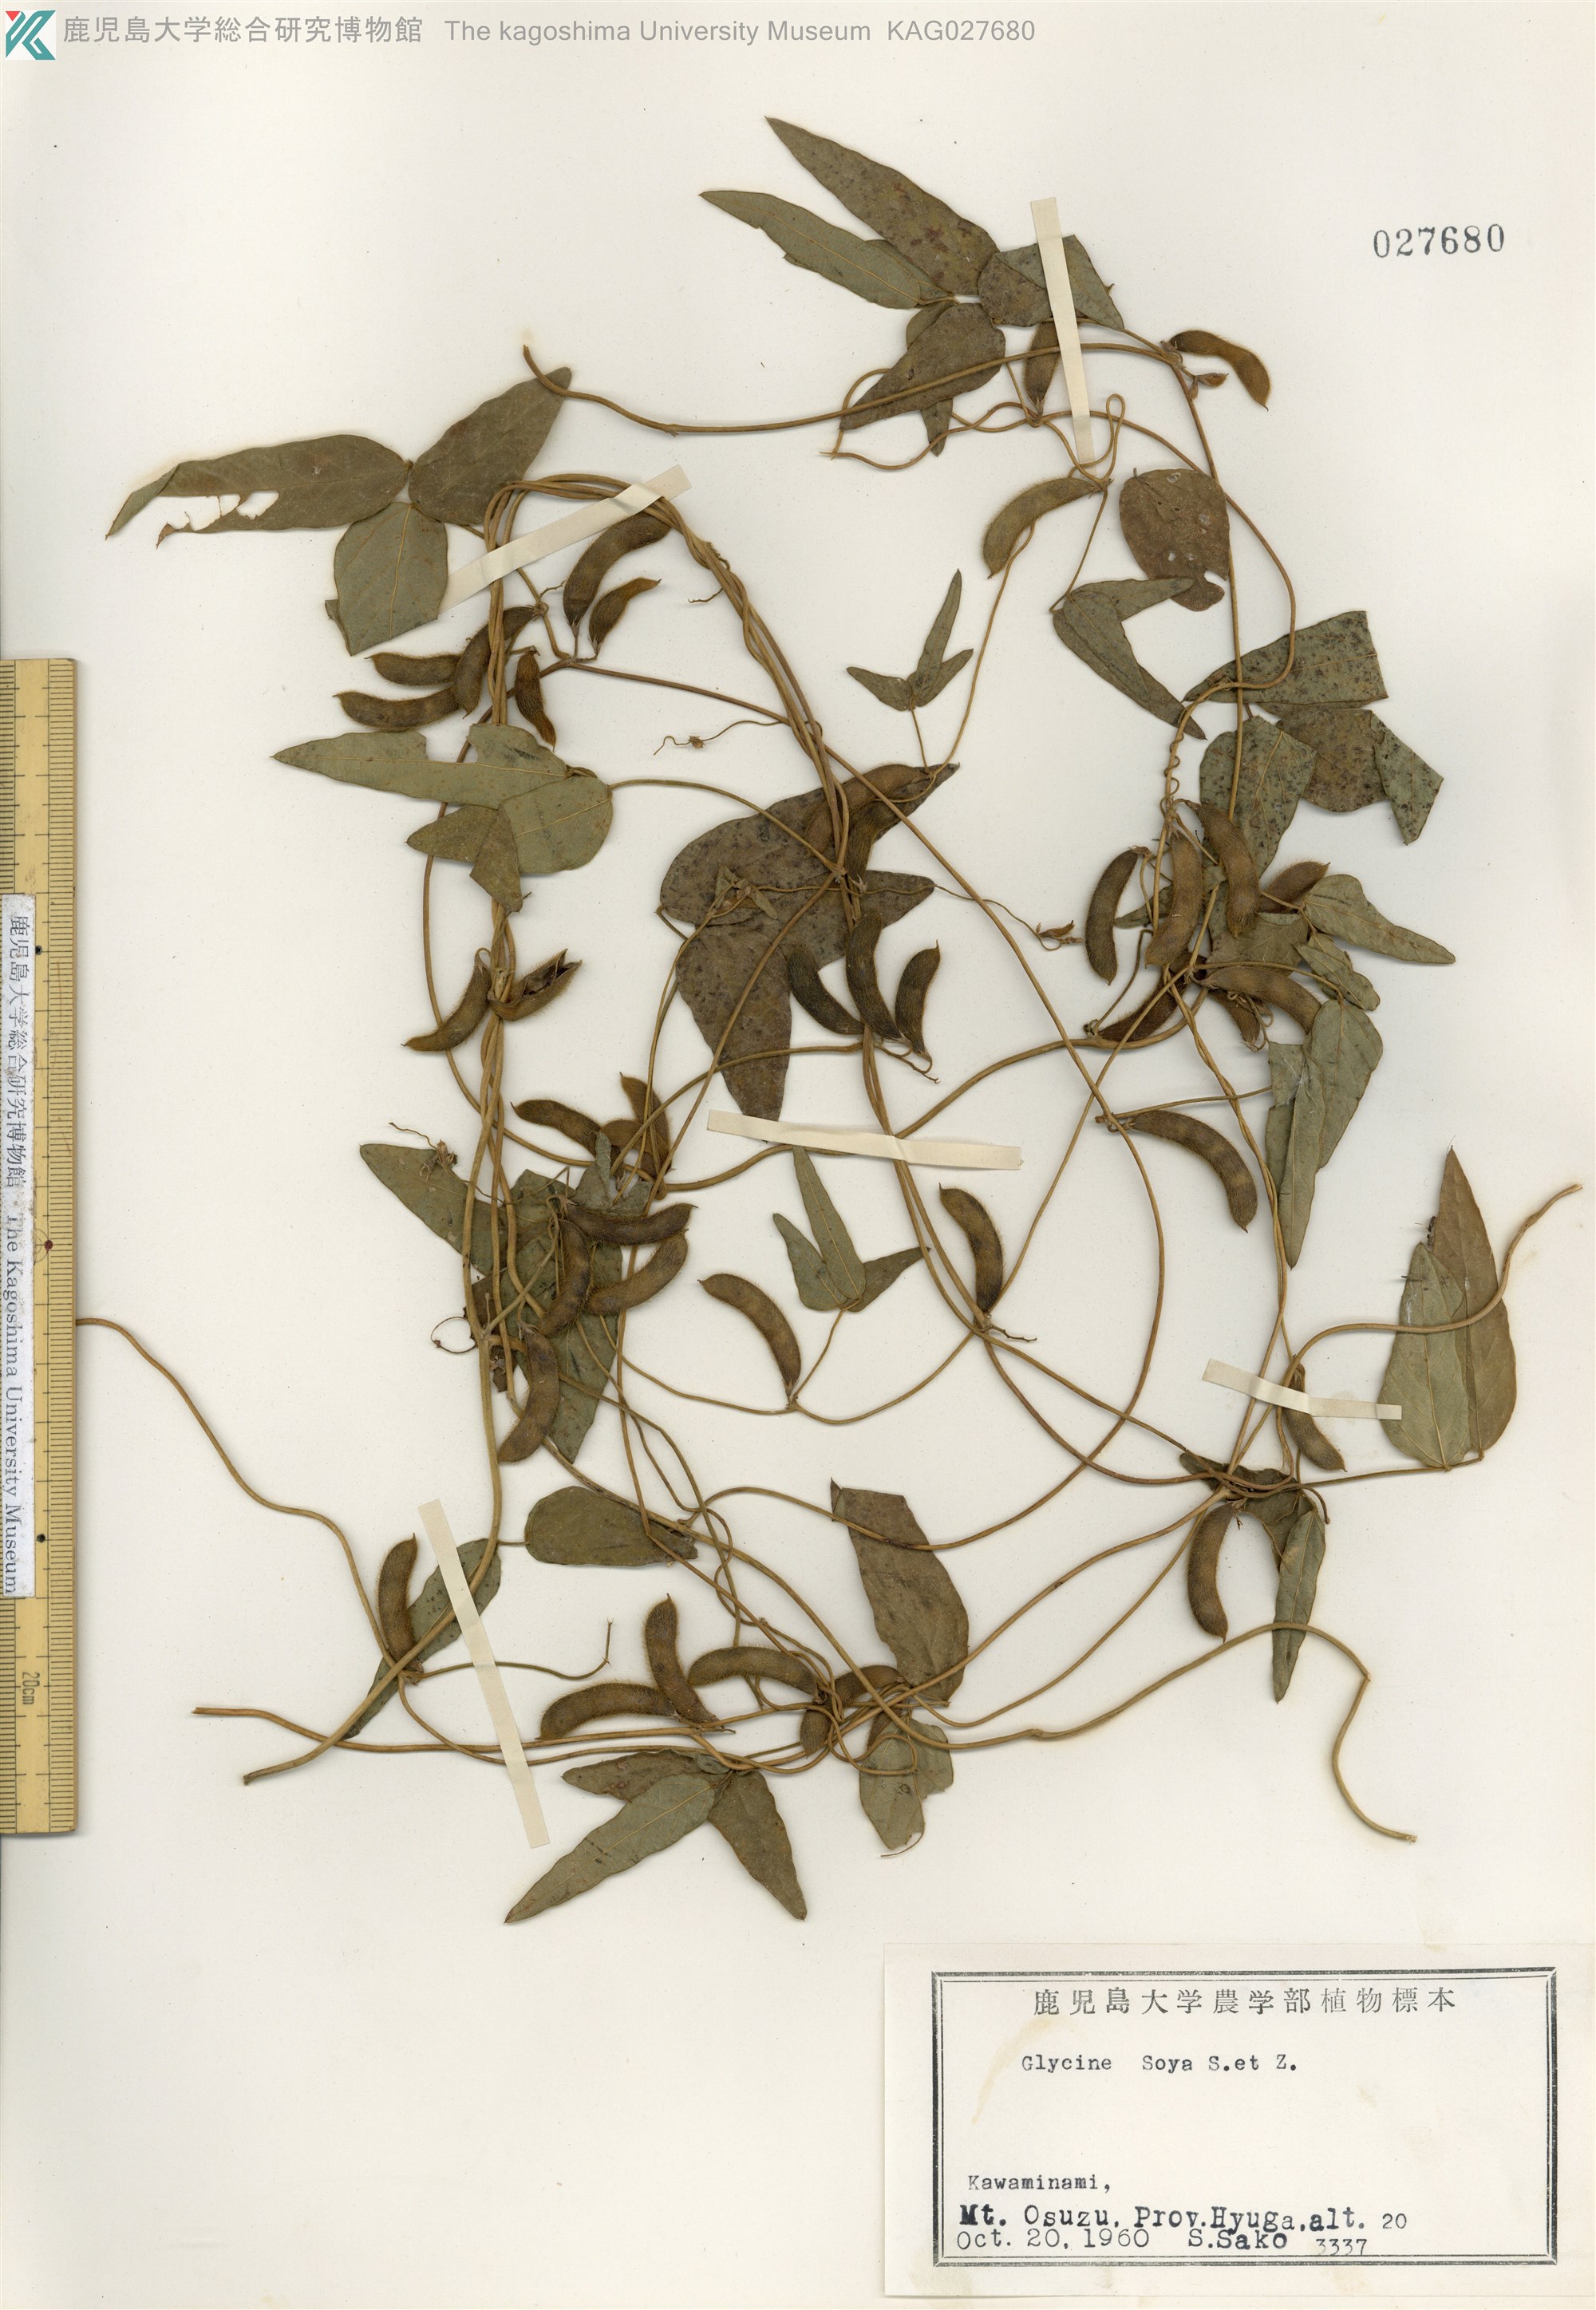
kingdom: Plantae
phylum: Tracheophyta
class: Magnoliopsida
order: Fabales
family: Fabaceae
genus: Glycine
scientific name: Glycine max
